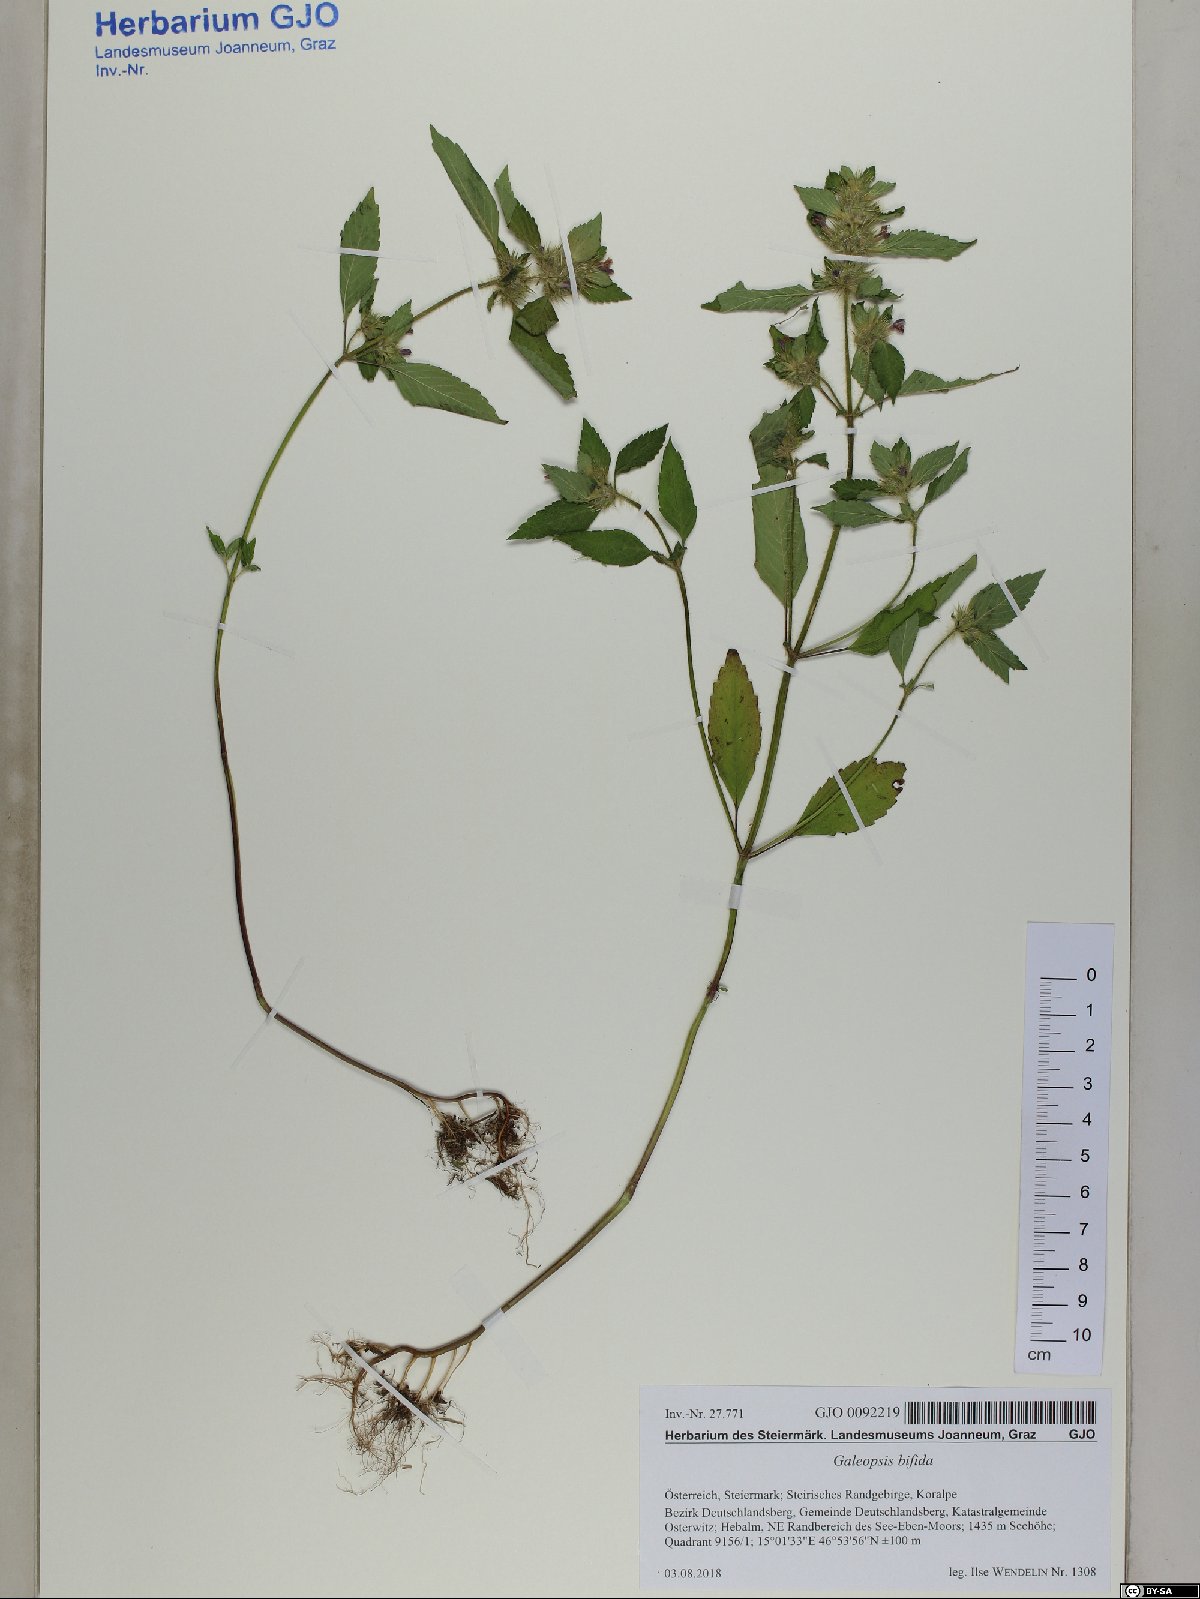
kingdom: Plantae
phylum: Tracheophyta
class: Magnoliopsida
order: Lamiales
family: Lamiaceae
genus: Galeopsis
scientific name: Galeopsis bifida
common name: Bifid hemp-nettle
